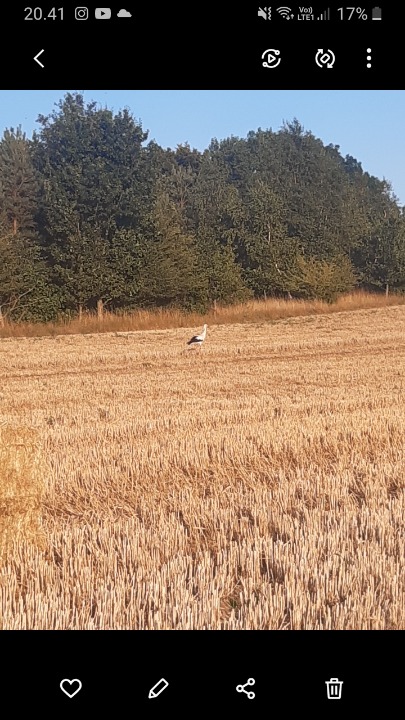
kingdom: Animalia
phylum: Chordata
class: Aves
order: Ciconiiformes
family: Ciconiidae
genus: Ciconia
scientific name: Ciconia ciconia
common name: Hvid stork
